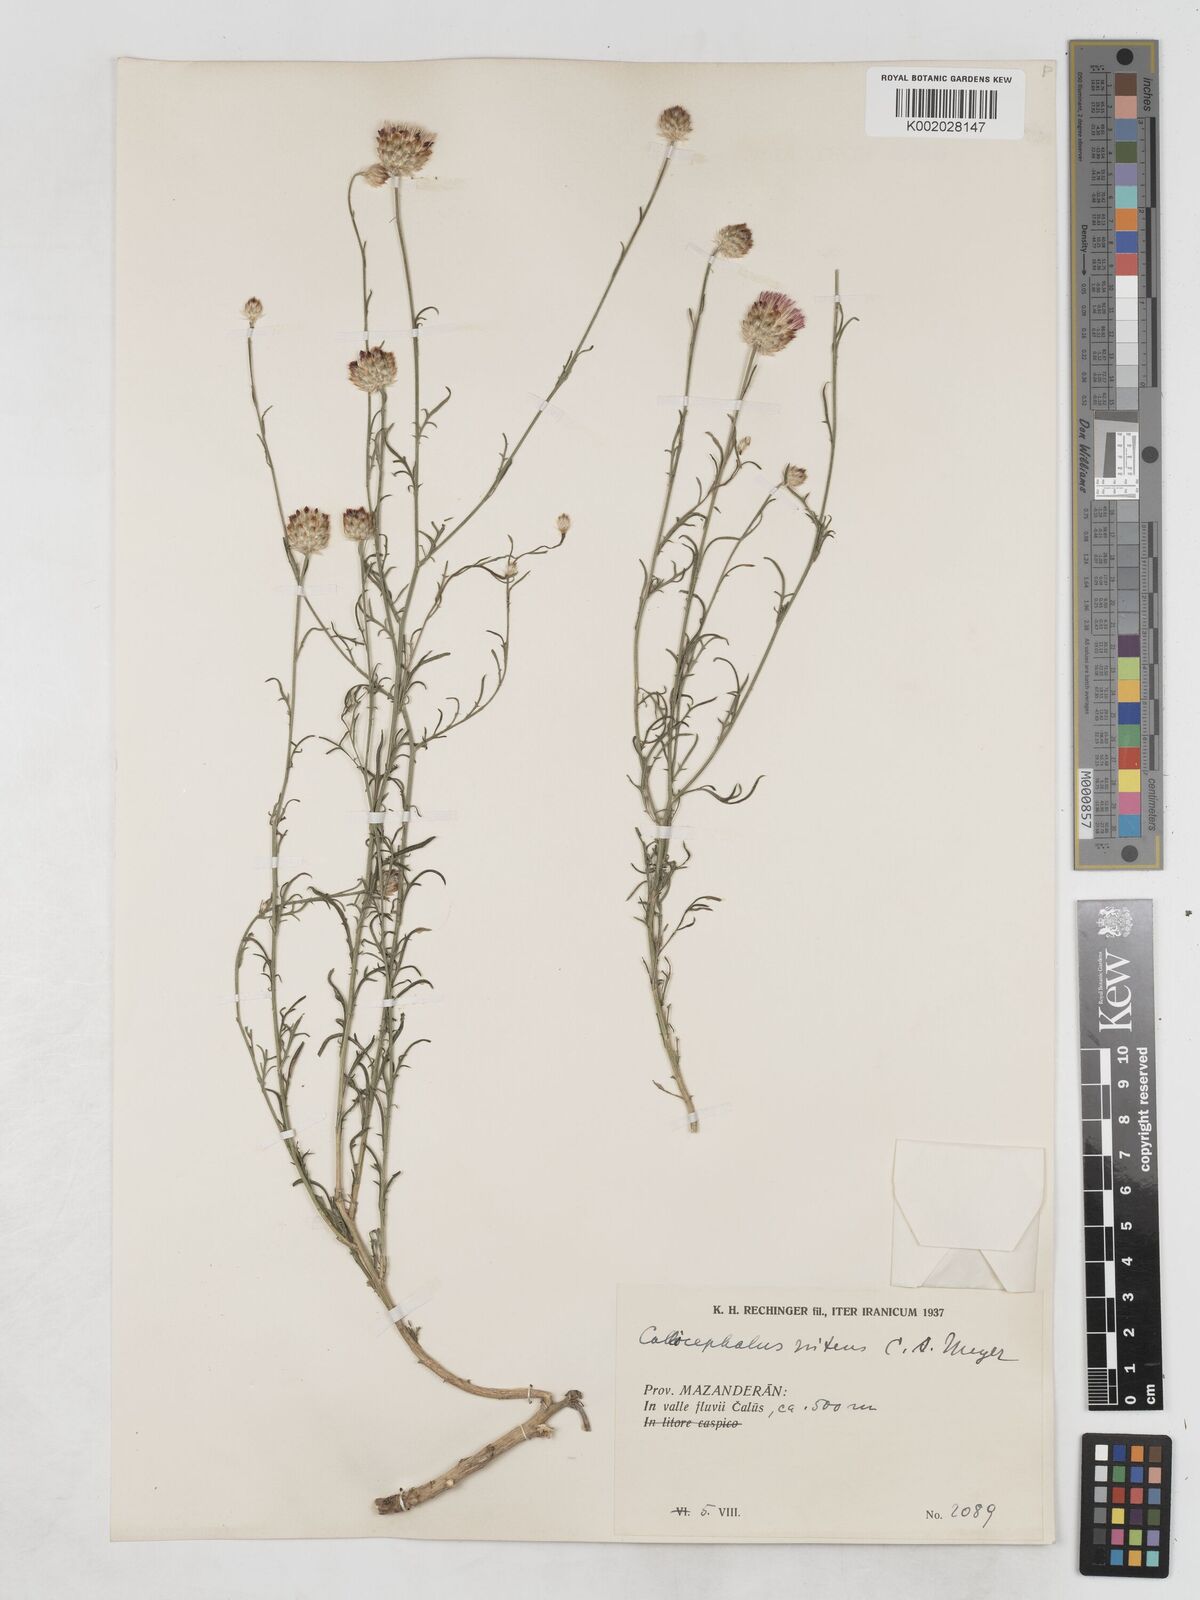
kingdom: Plantae
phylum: Tracheophyta
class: Magnoliopsida
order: Asterales
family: Asteraceae
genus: Callicephalus
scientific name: Callicephalus nitens
